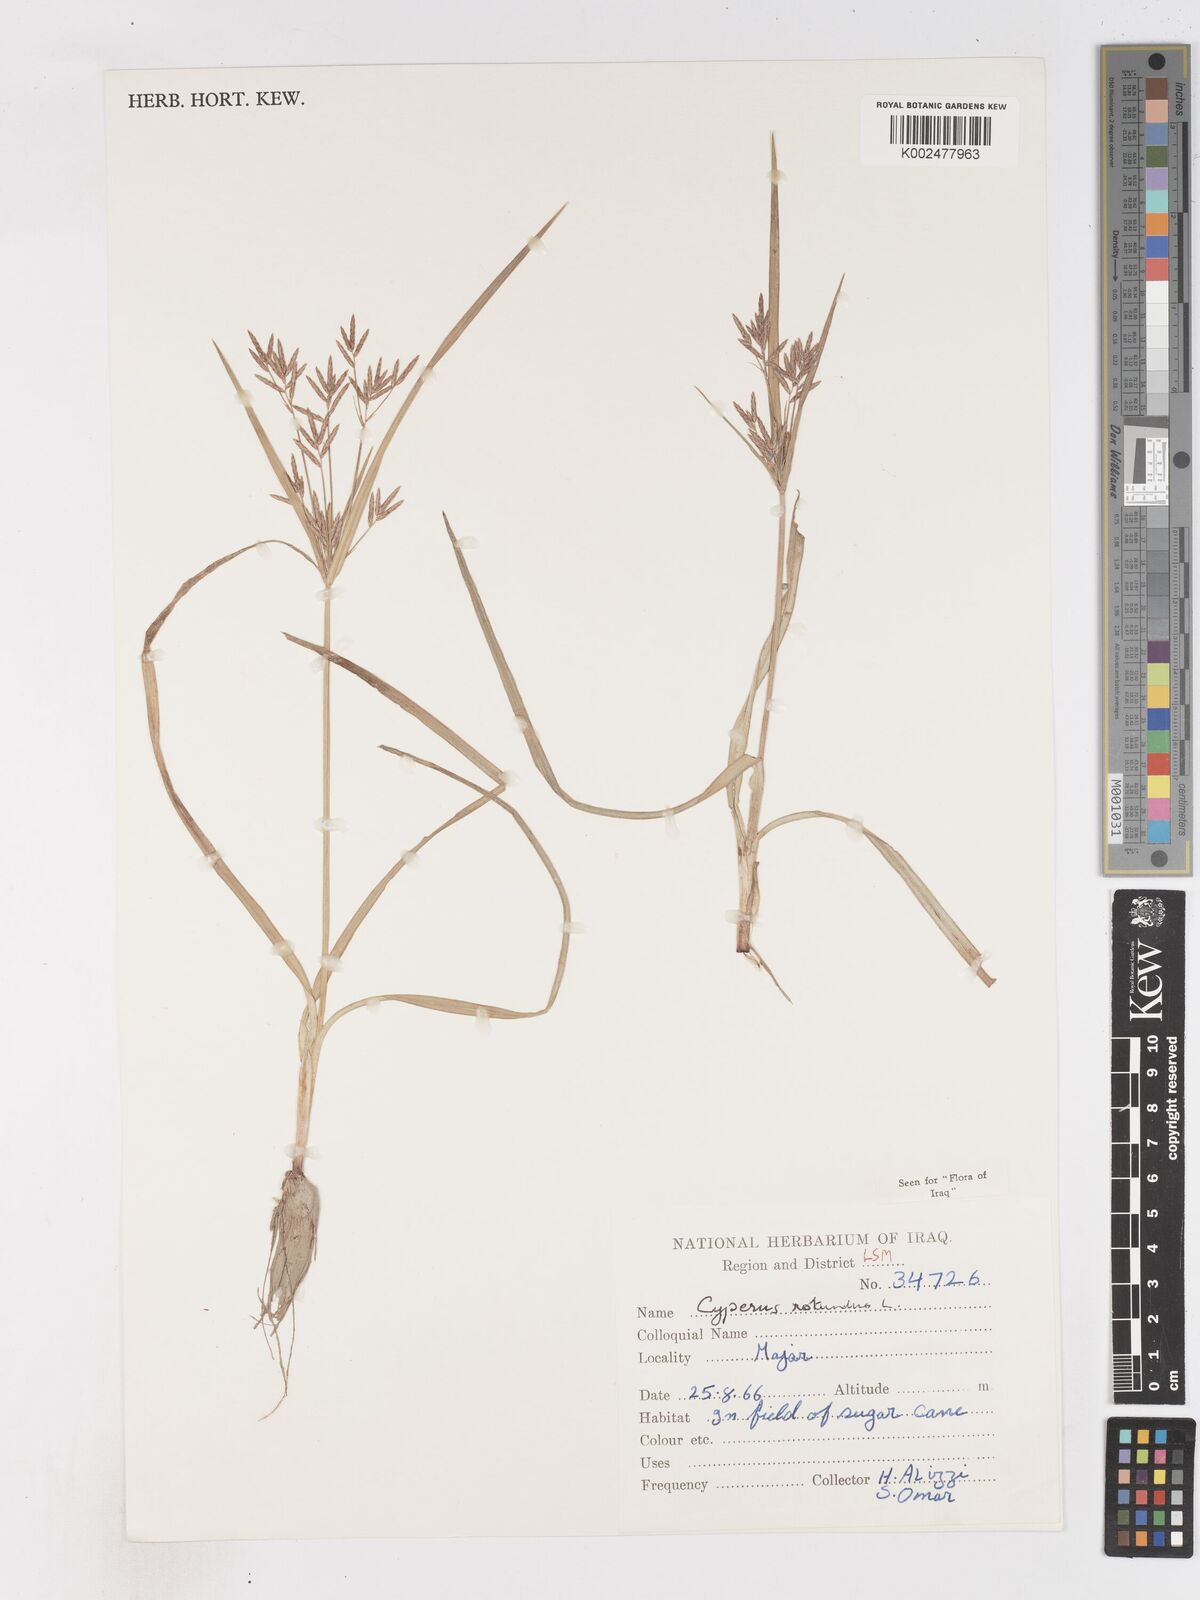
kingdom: Plantae
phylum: Tracheophyta
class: Liliopsida
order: Poales
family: Cyperaceae
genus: Cyperus
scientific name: Cyperus rotundus
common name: Nutgrass
